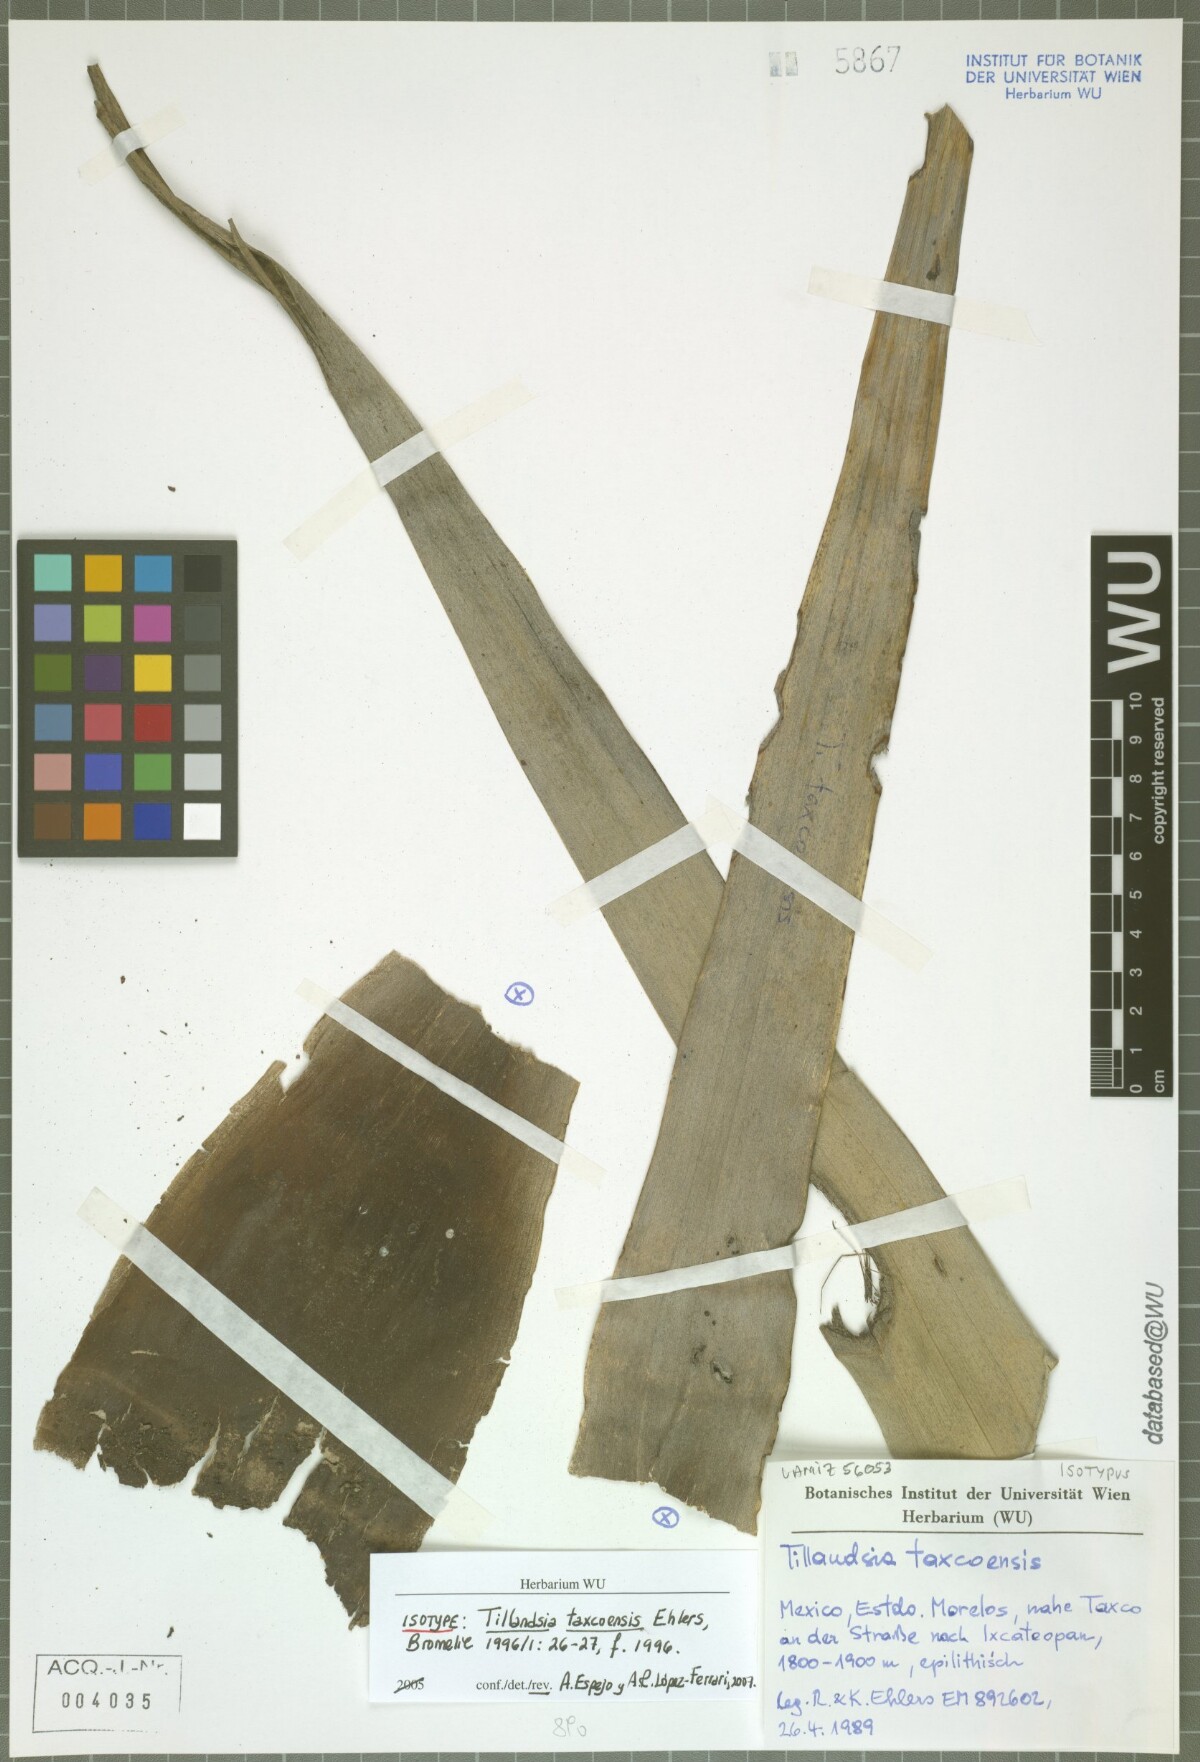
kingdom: Plantae
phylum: Tracheophyta
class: Liliopsida
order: Poales
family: Bromeliaceae
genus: Tillandsia
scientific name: Tillandsia taxcoensis
